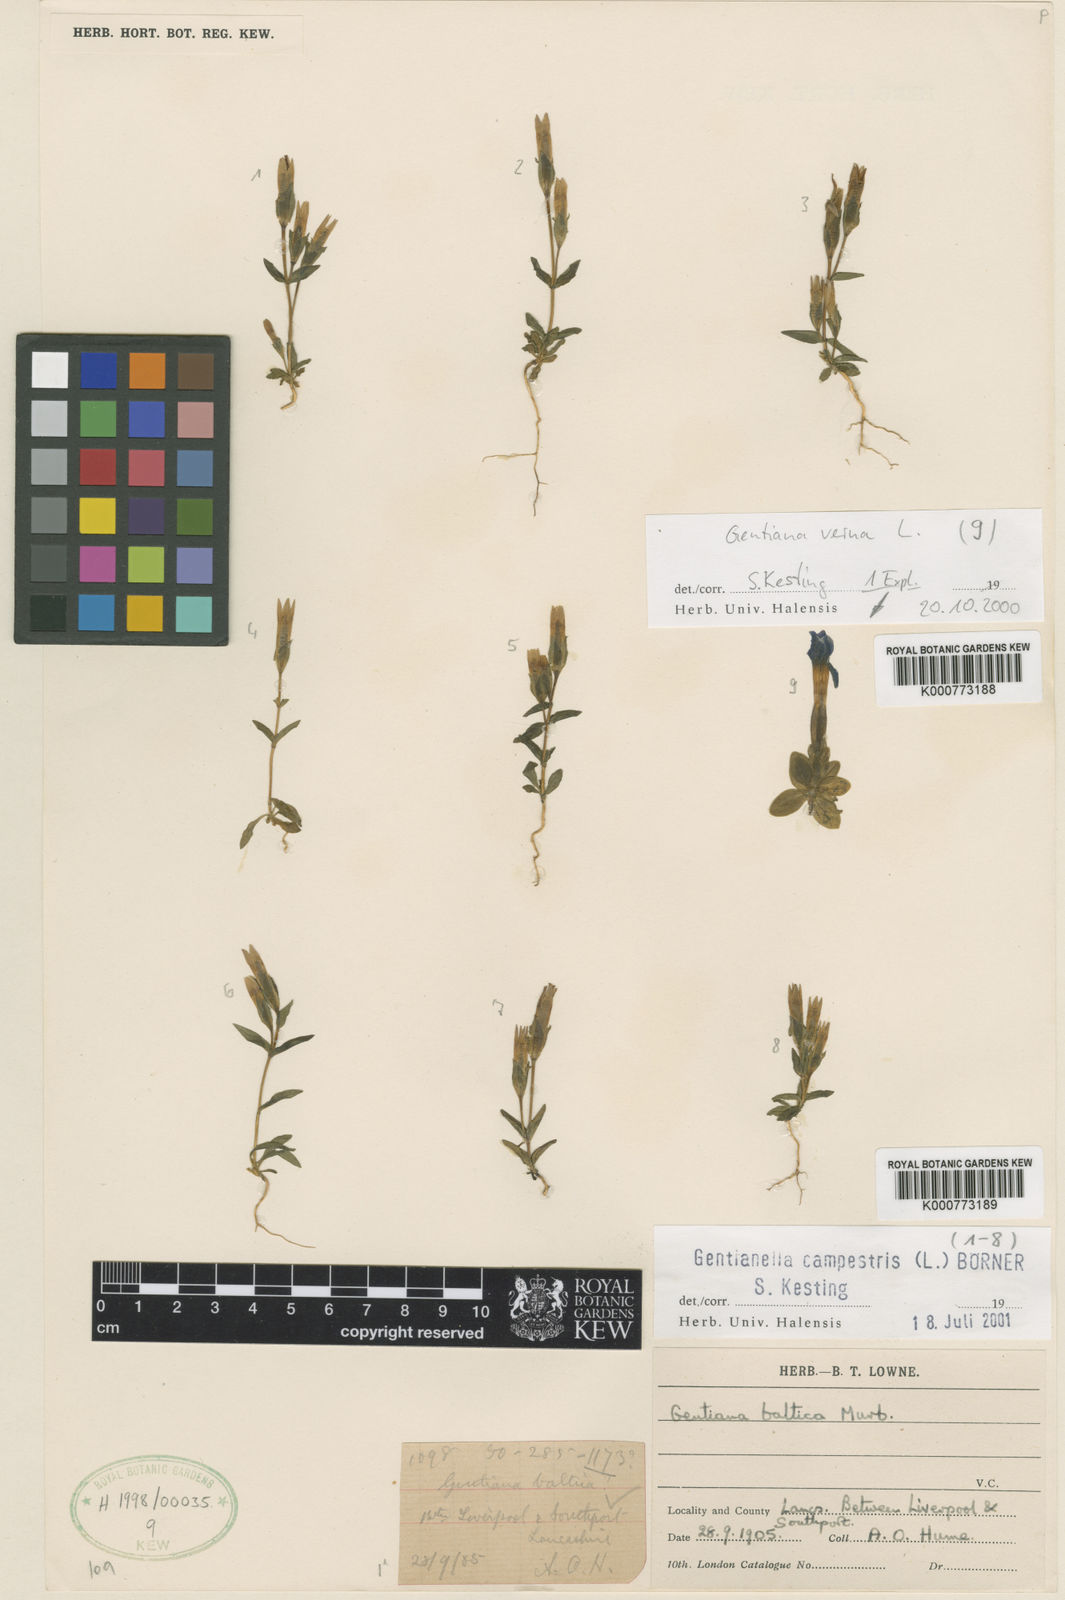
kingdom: Plantae
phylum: Tracheophyta
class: Magnoliopsida
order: Gentianales
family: Gentianaceae
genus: Gentianella
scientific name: Gentianella
